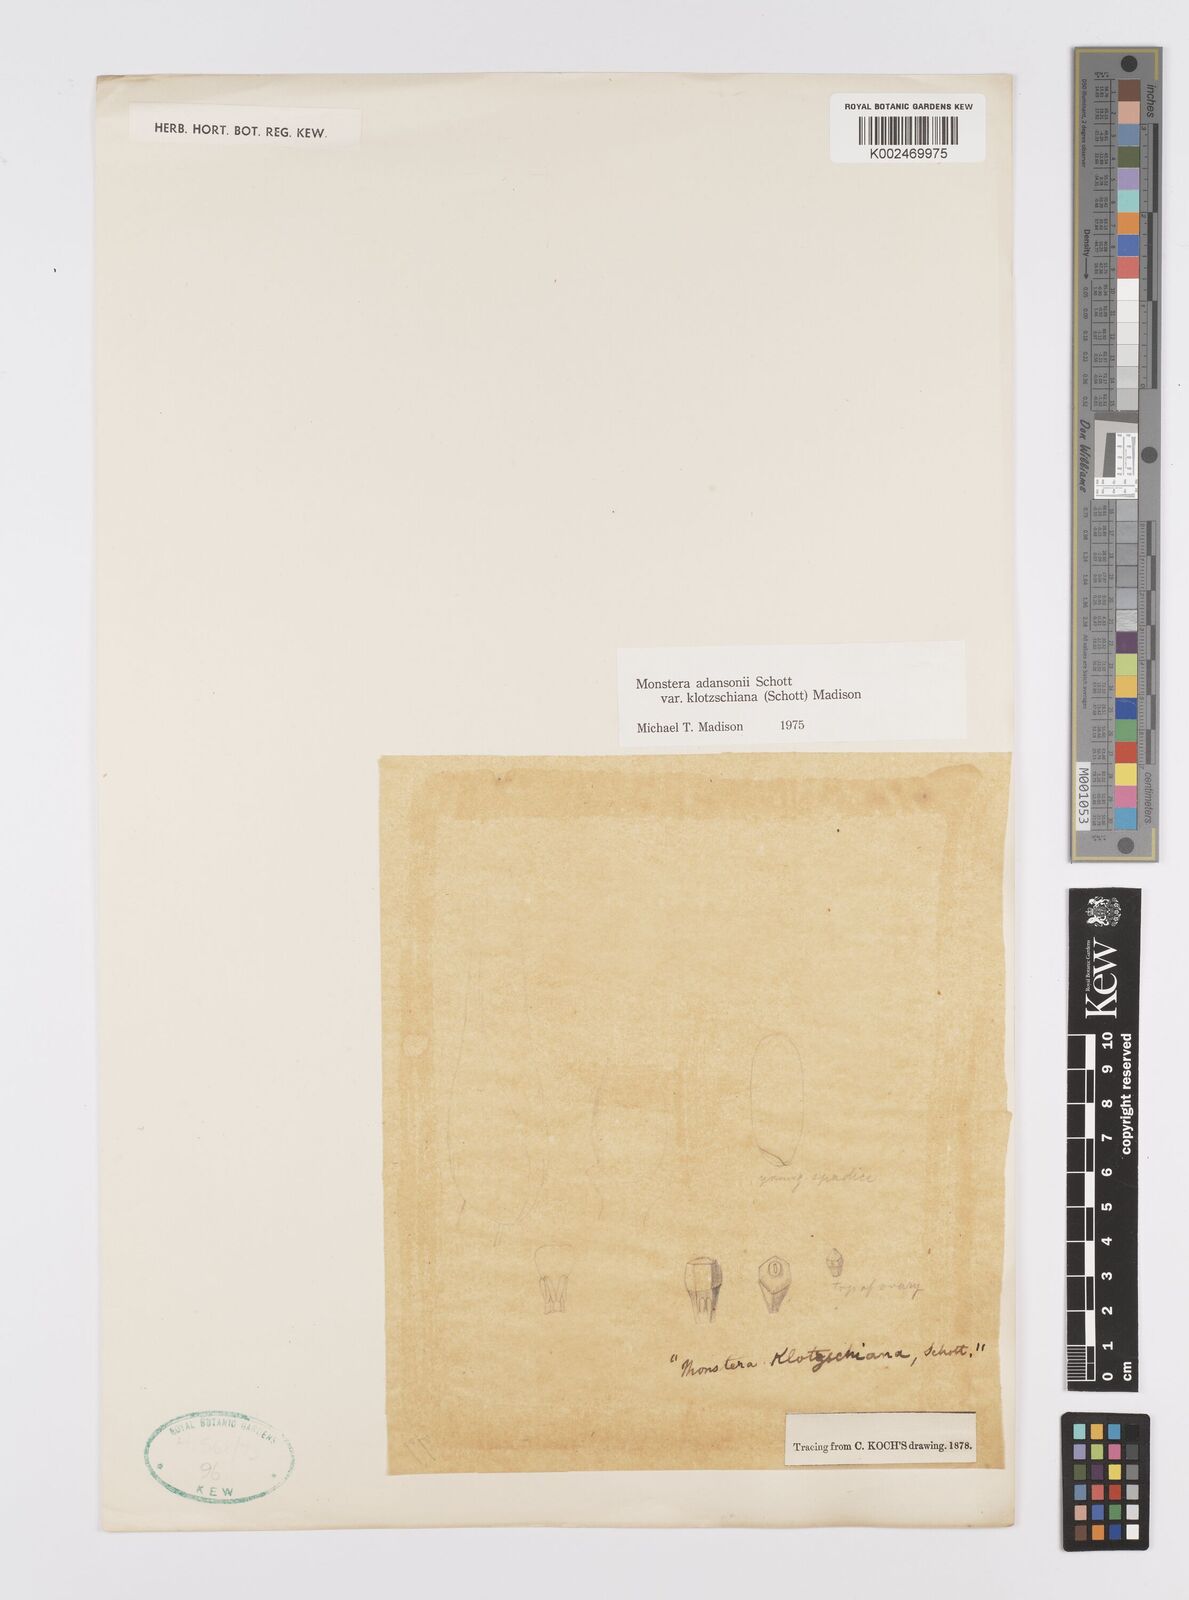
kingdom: Plantae
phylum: Tracheophyta
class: Liliopsida
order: Alismatales
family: Araceae
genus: Monstera
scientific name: Monstera adansonii
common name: Tarovine
